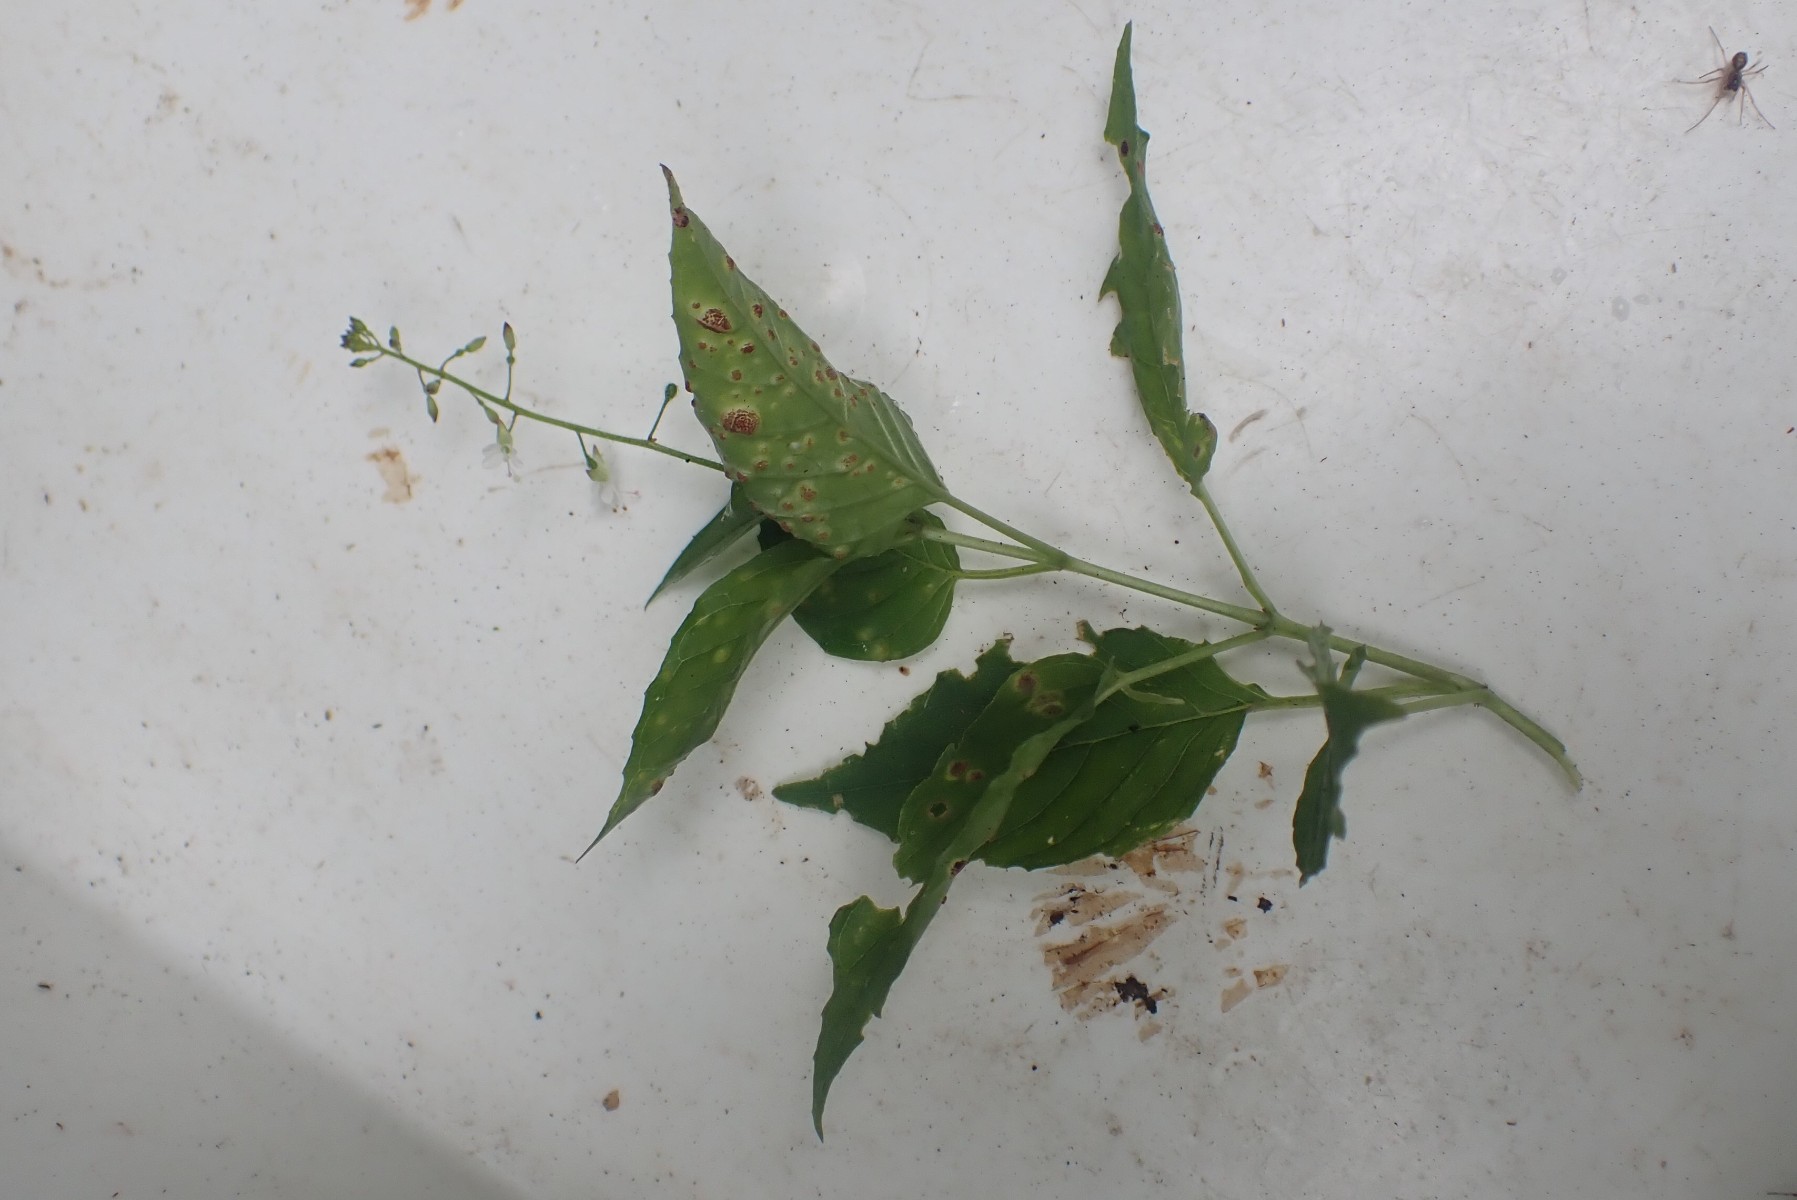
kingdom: Fungi
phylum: Basidiomycota
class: Pucciniomycetes
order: Pucciniales
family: Pucciniaceae
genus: Puccinia
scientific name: Puccinia circaeae
